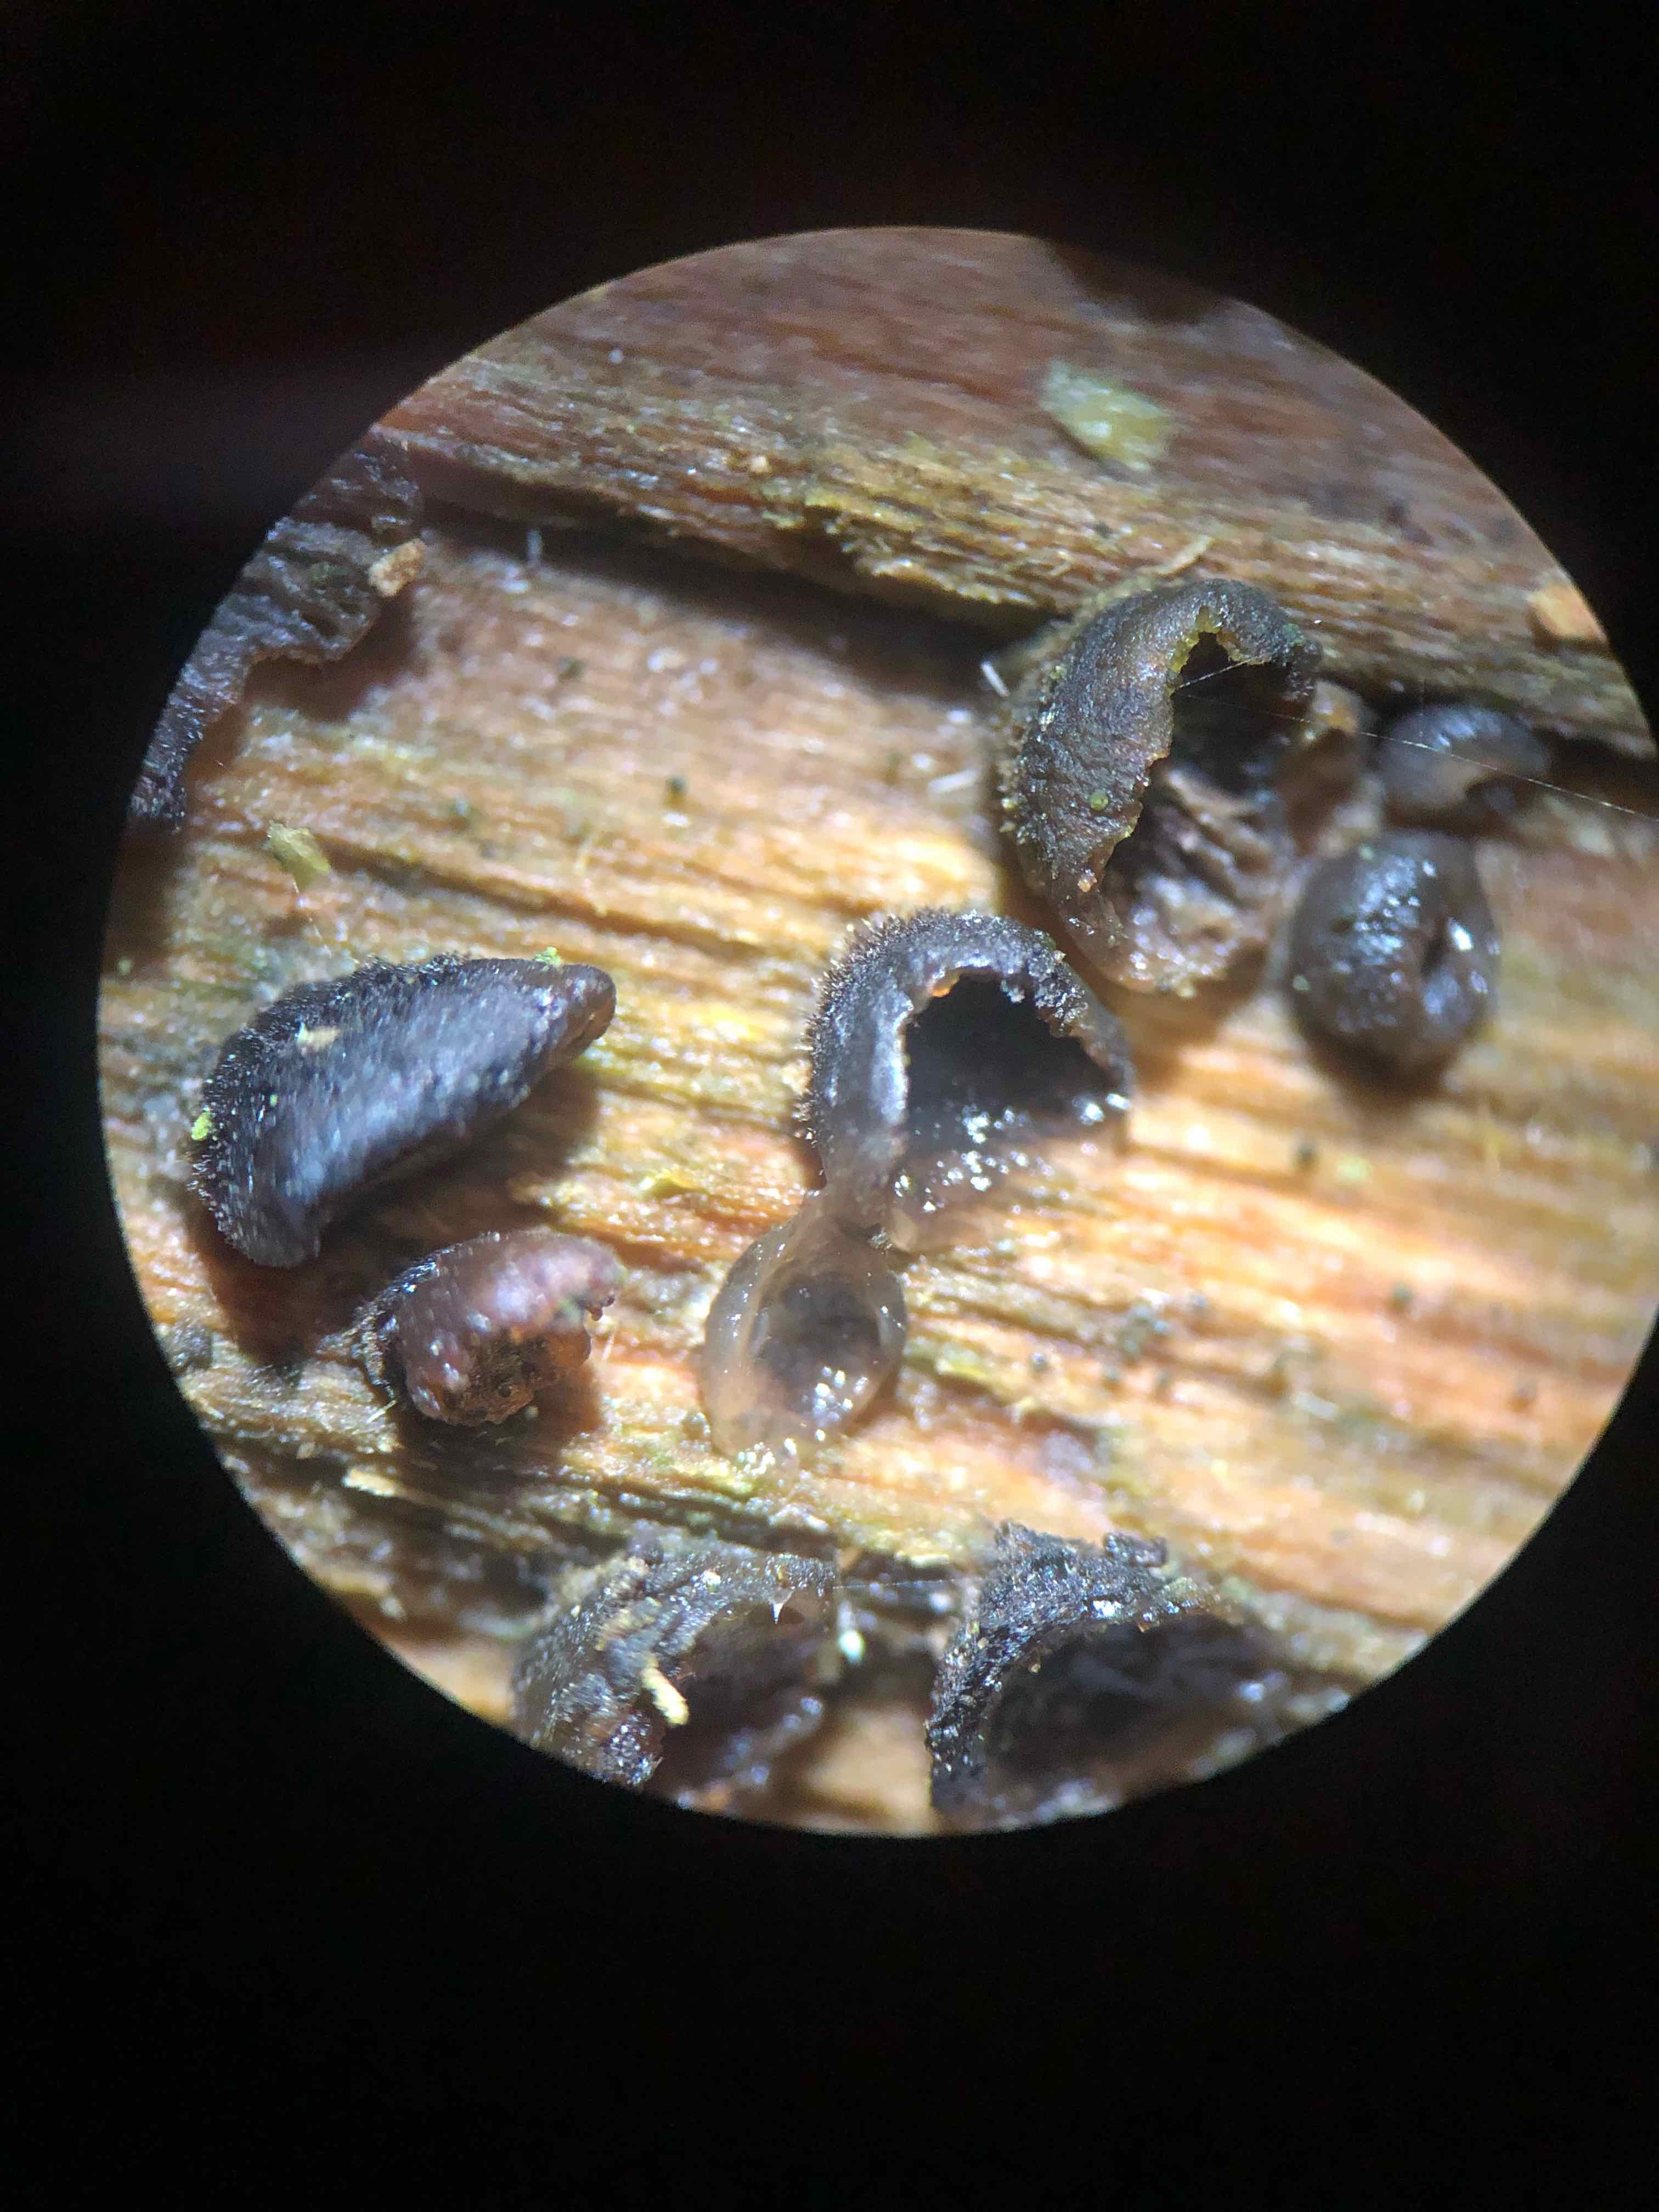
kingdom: Fungi
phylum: Basidiomycota
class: Agaricomycetes
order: Agaricales
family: Pleurotaceae
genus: Resupinatus
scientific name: Resupinatus trichotis
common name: mørkfiltet barkhat
